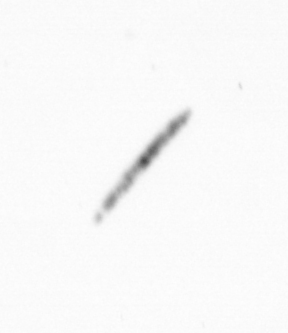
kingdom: Chromista
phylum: Ochrophyta
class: Bacillariophyceae
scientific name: Bacillariophyceae
